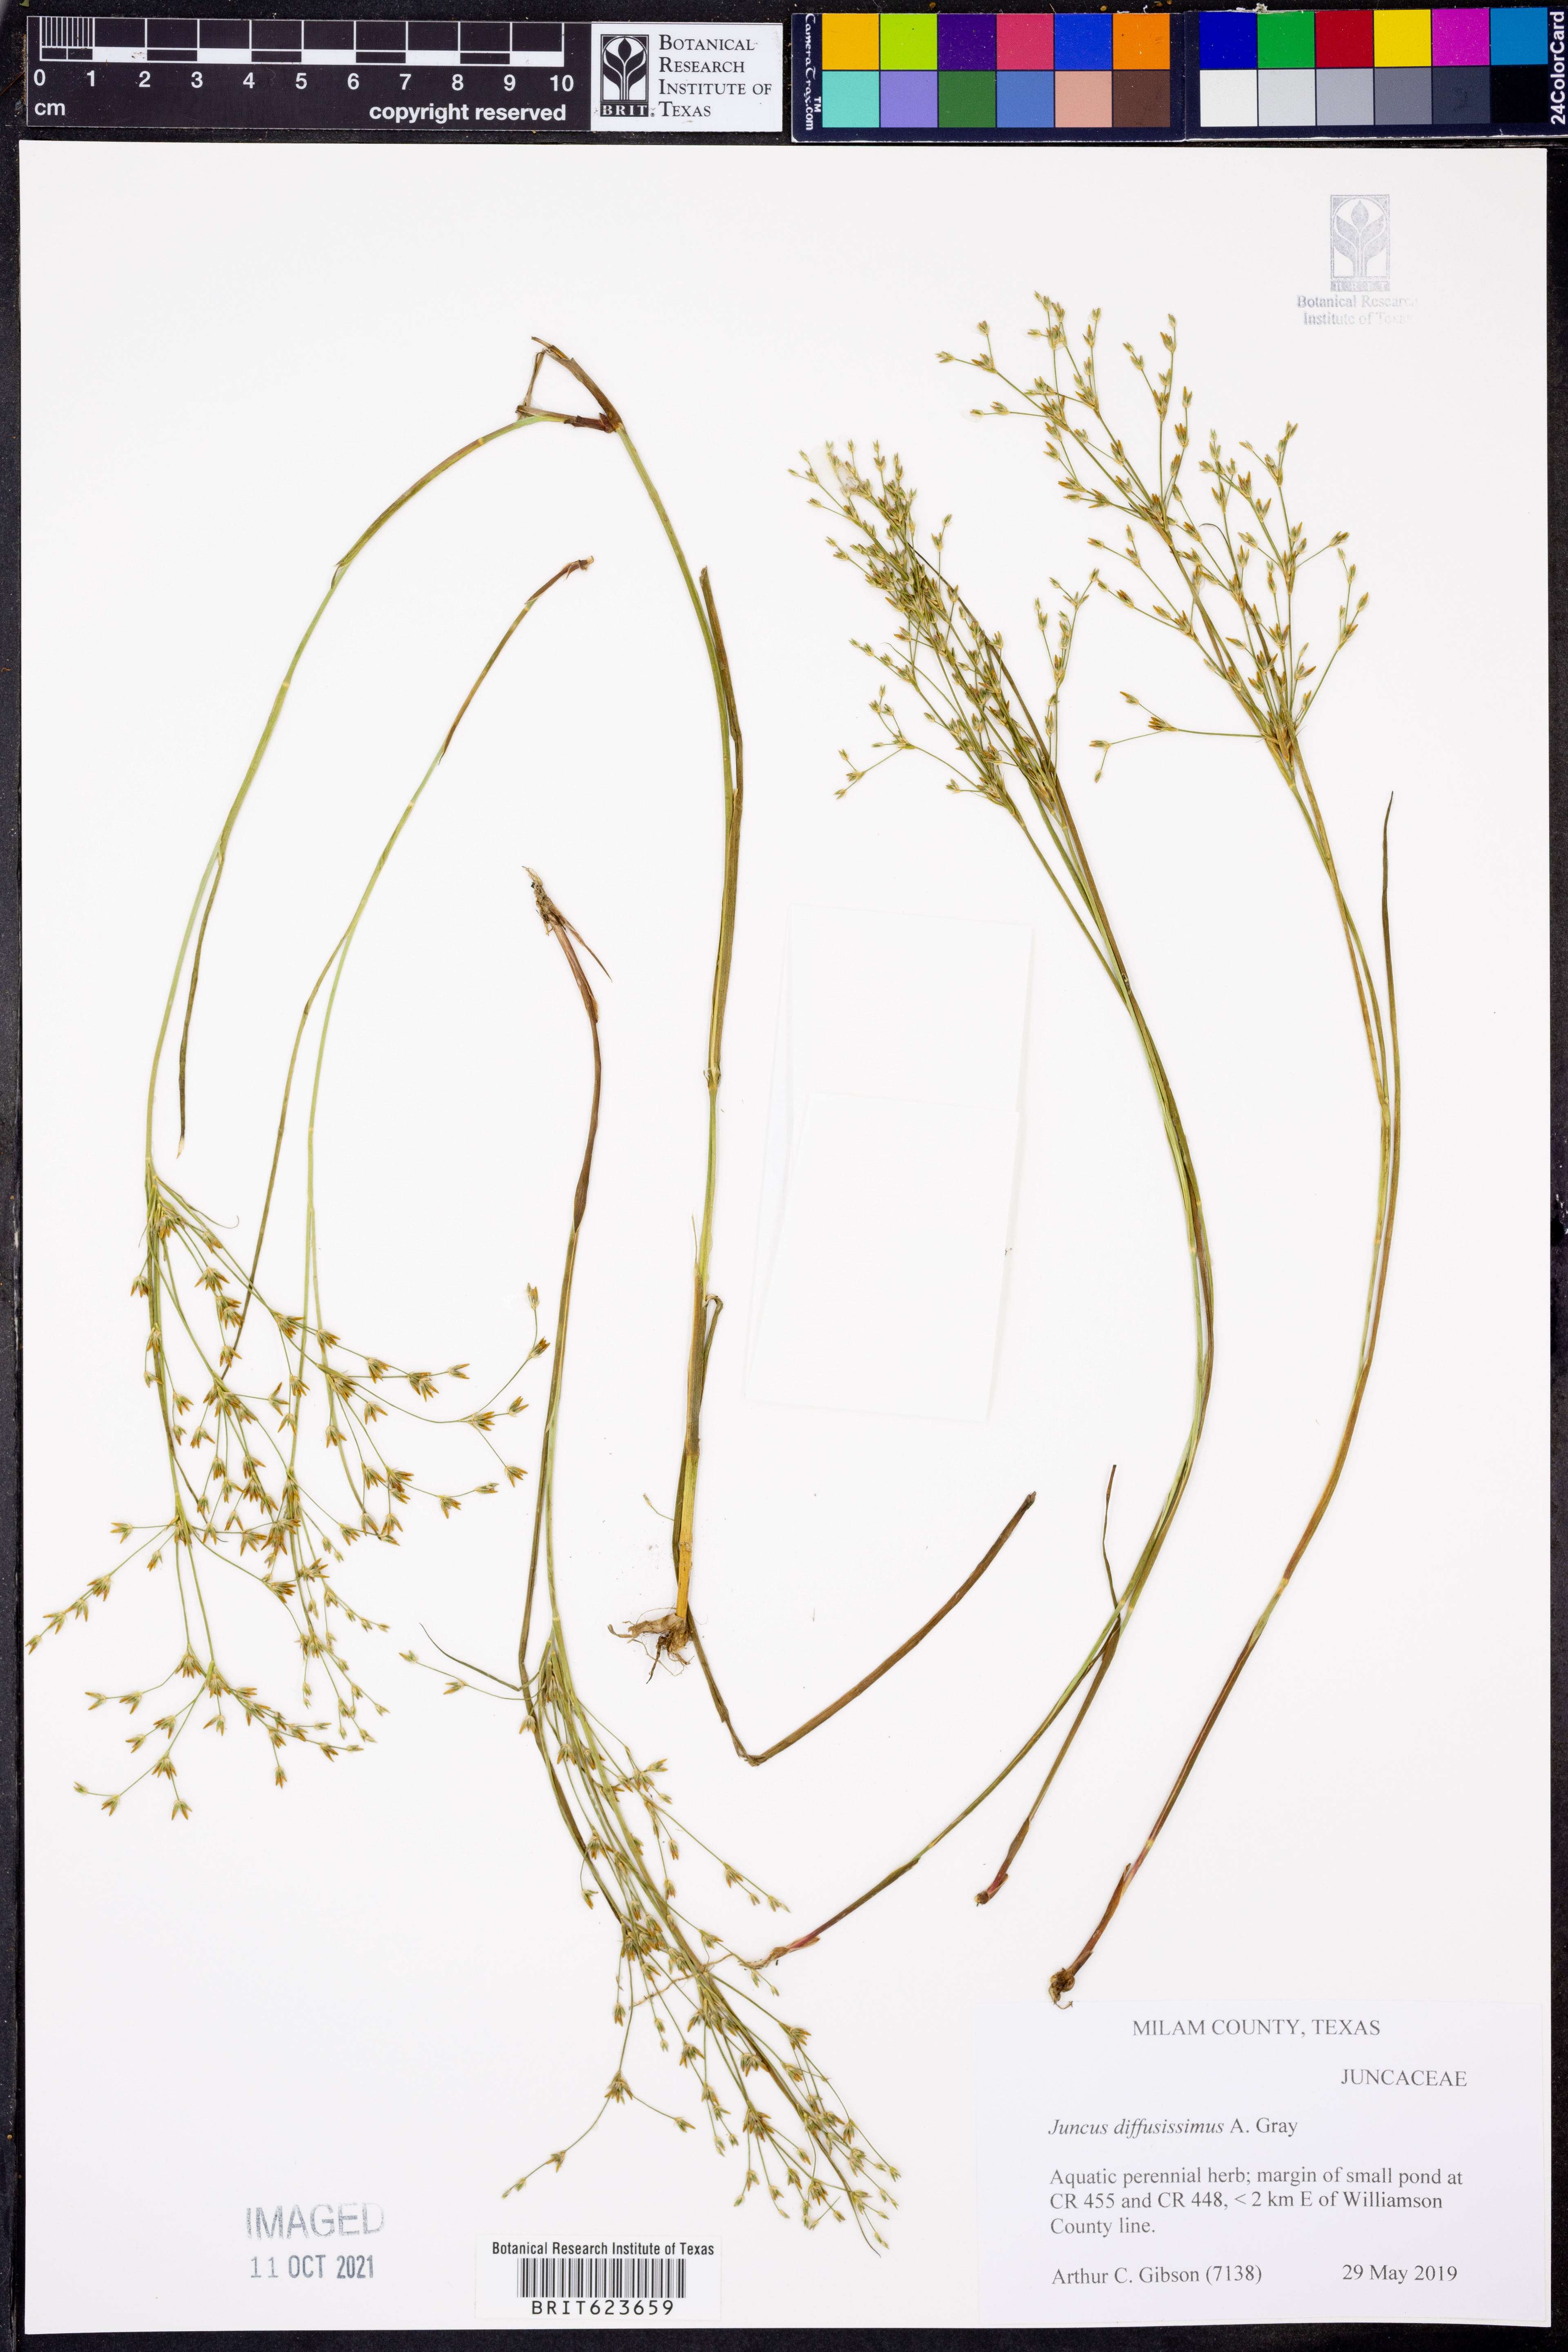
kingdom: Plantae
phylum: Tracheophyta
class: Liliopsida
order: Poales
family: Juncaceae
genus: Juncus
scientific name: Juncus diffusissimus
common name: Slimpod rush
